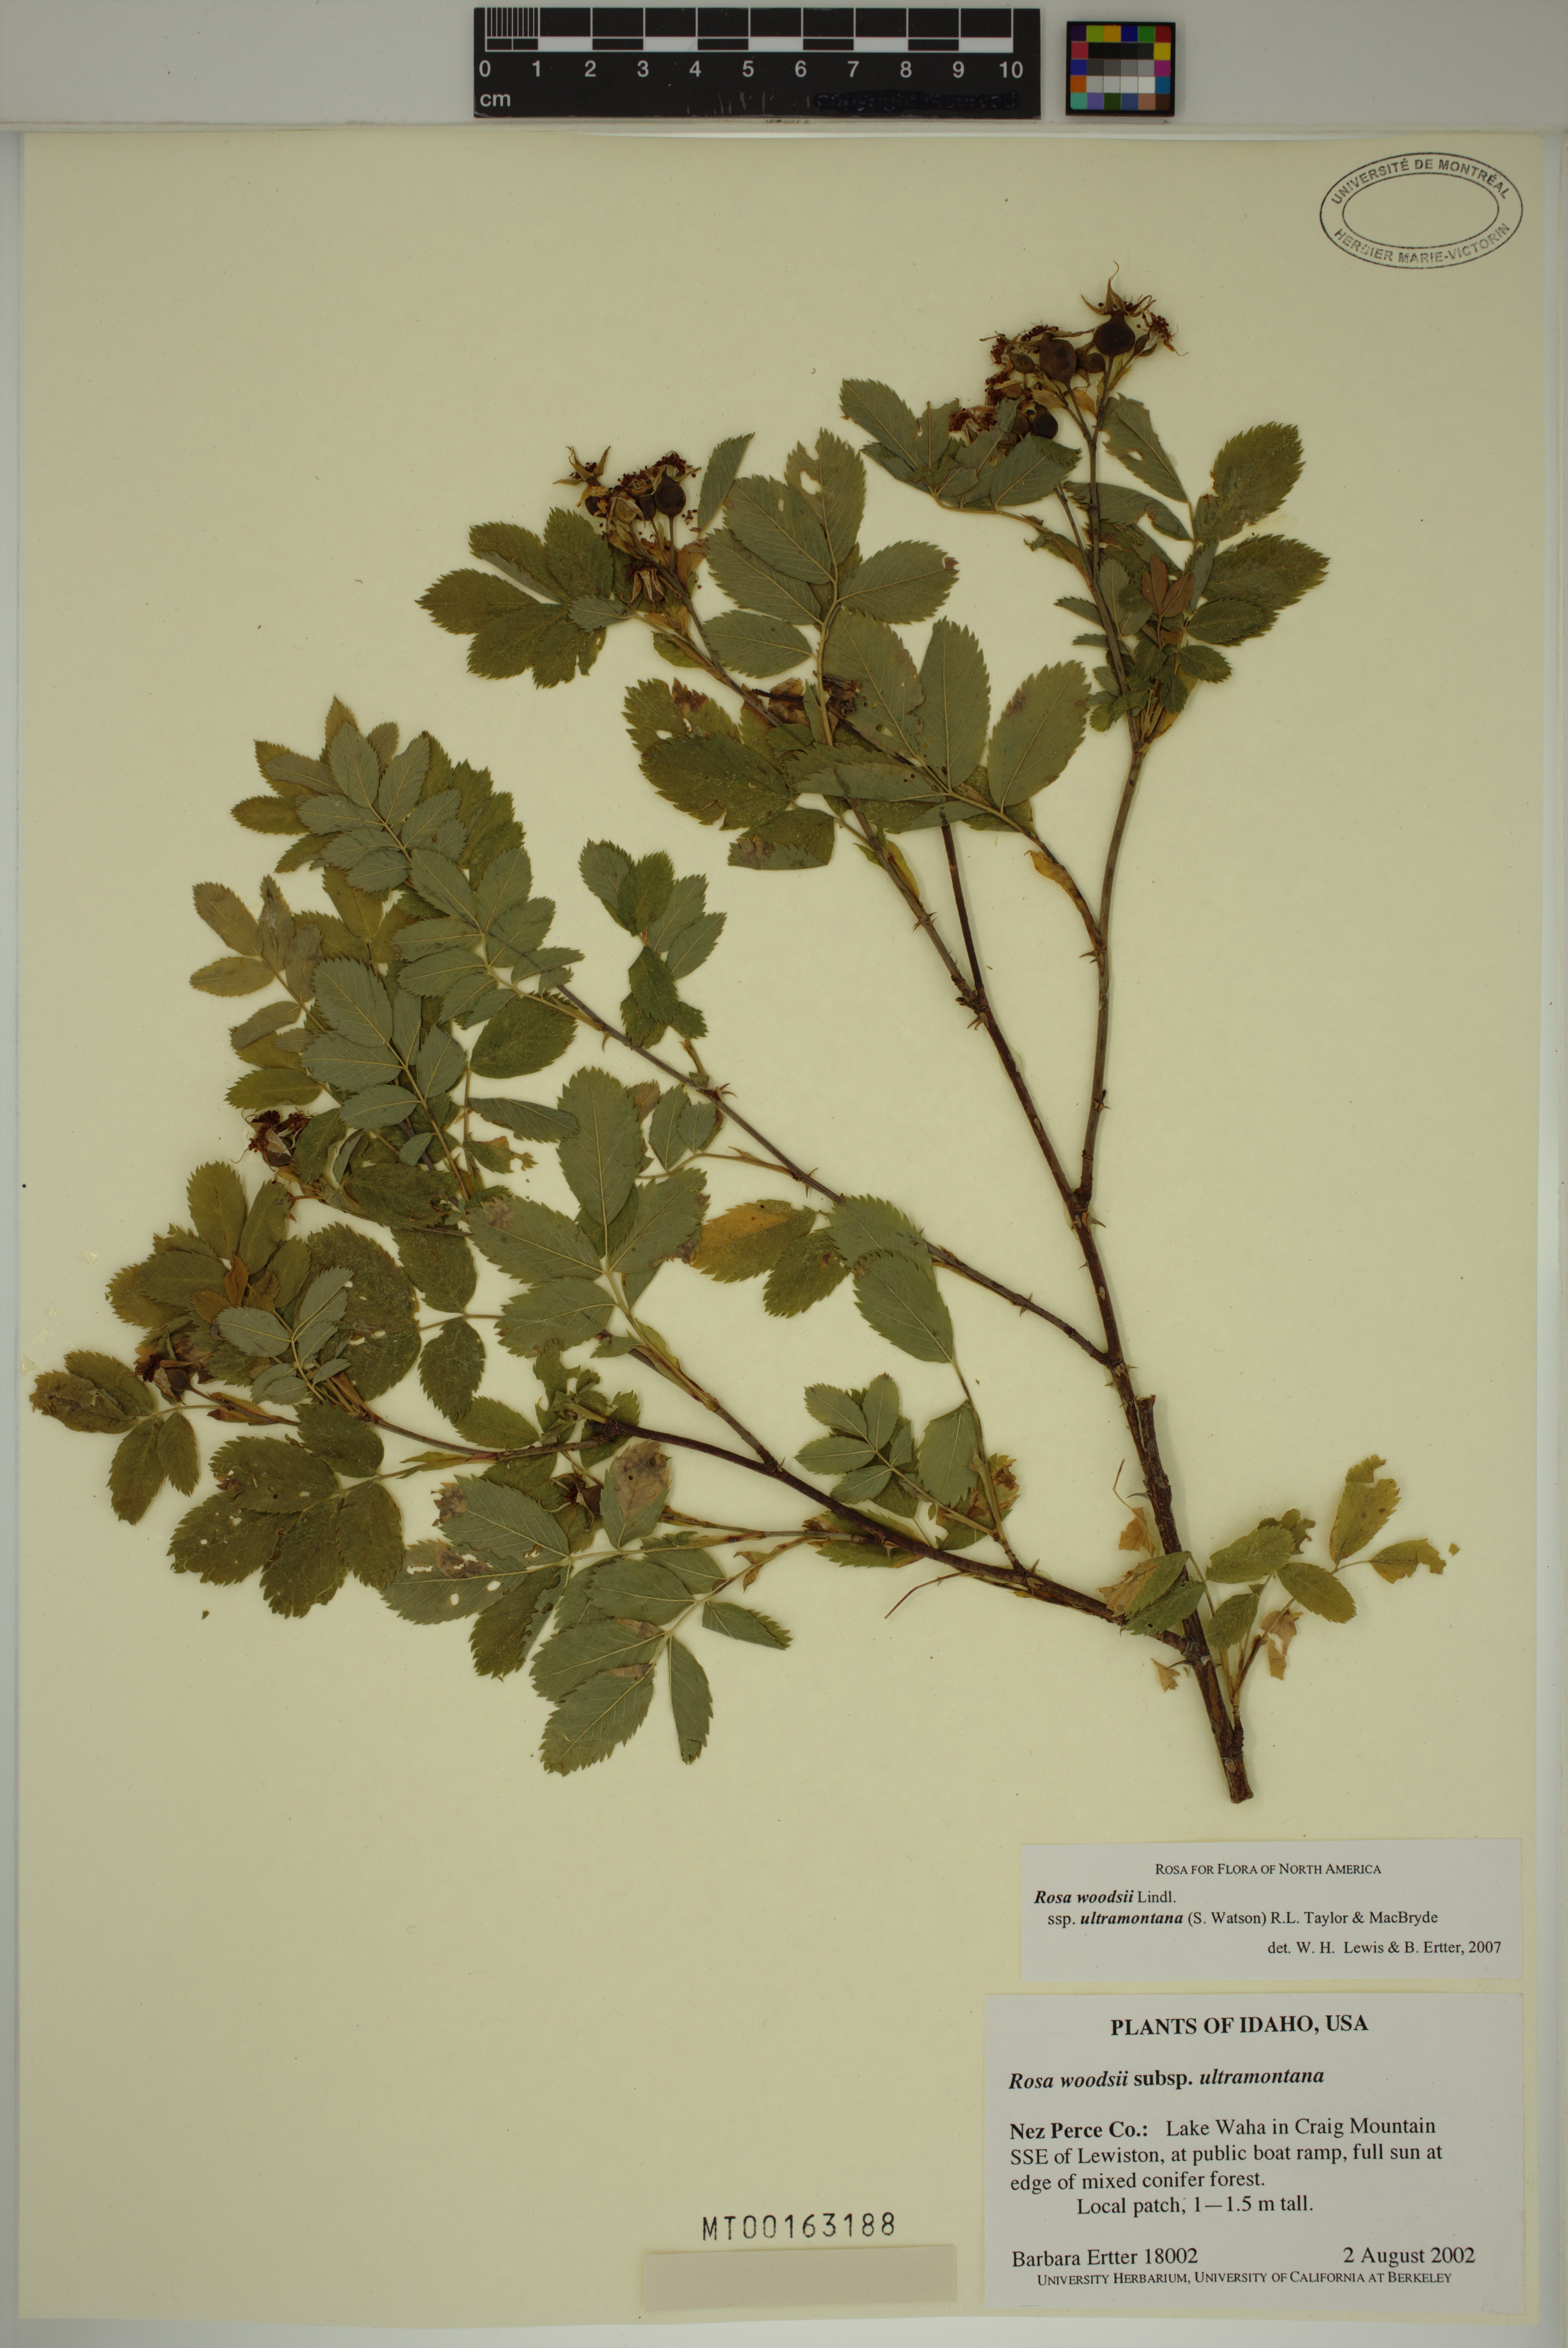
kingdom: Plantae
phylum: Tracheophyta
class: Magnoliopsida
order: Rosales
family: Rosaceae
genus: Rosa
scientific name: Rosa woodsii
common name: Woods's rose
